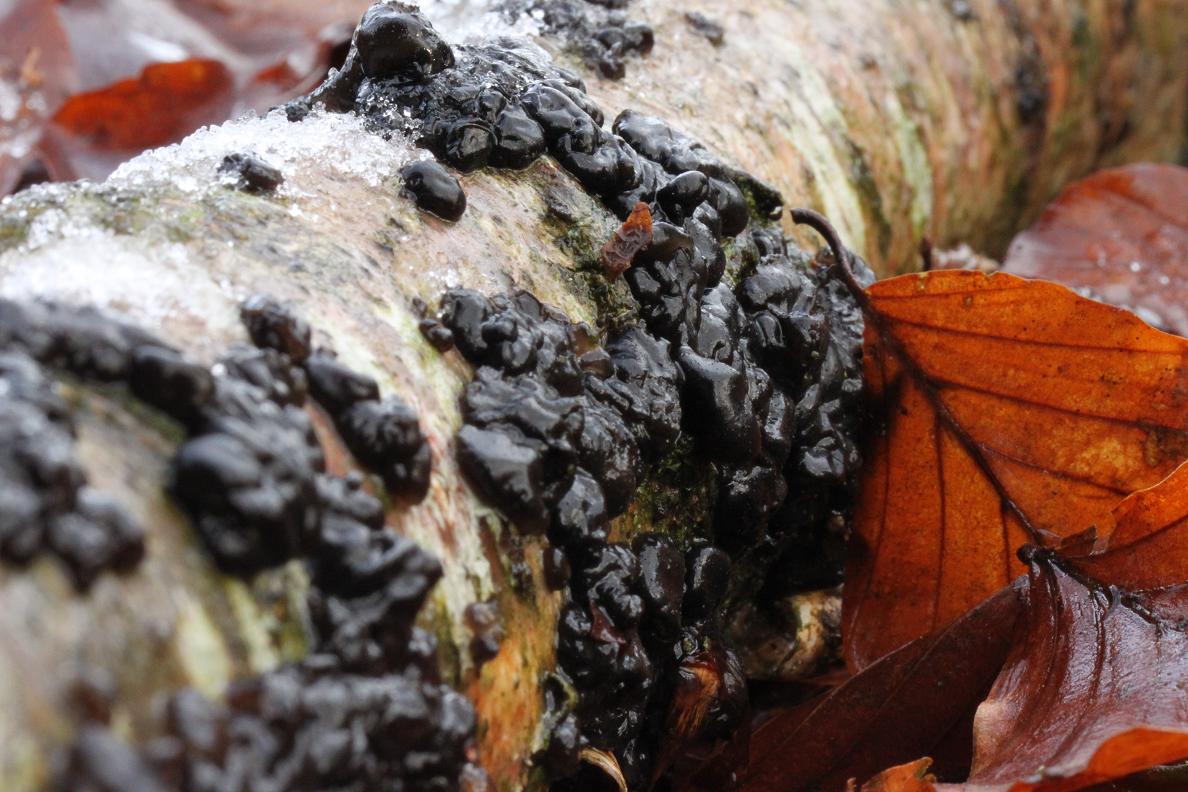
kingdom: Fungi
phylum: Basidiomycota
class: Agaricomycetes
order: Auriculariales
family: Auriculariaceae
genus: Exidia
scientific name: Exidia nigricans
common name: almindelig bævretop
